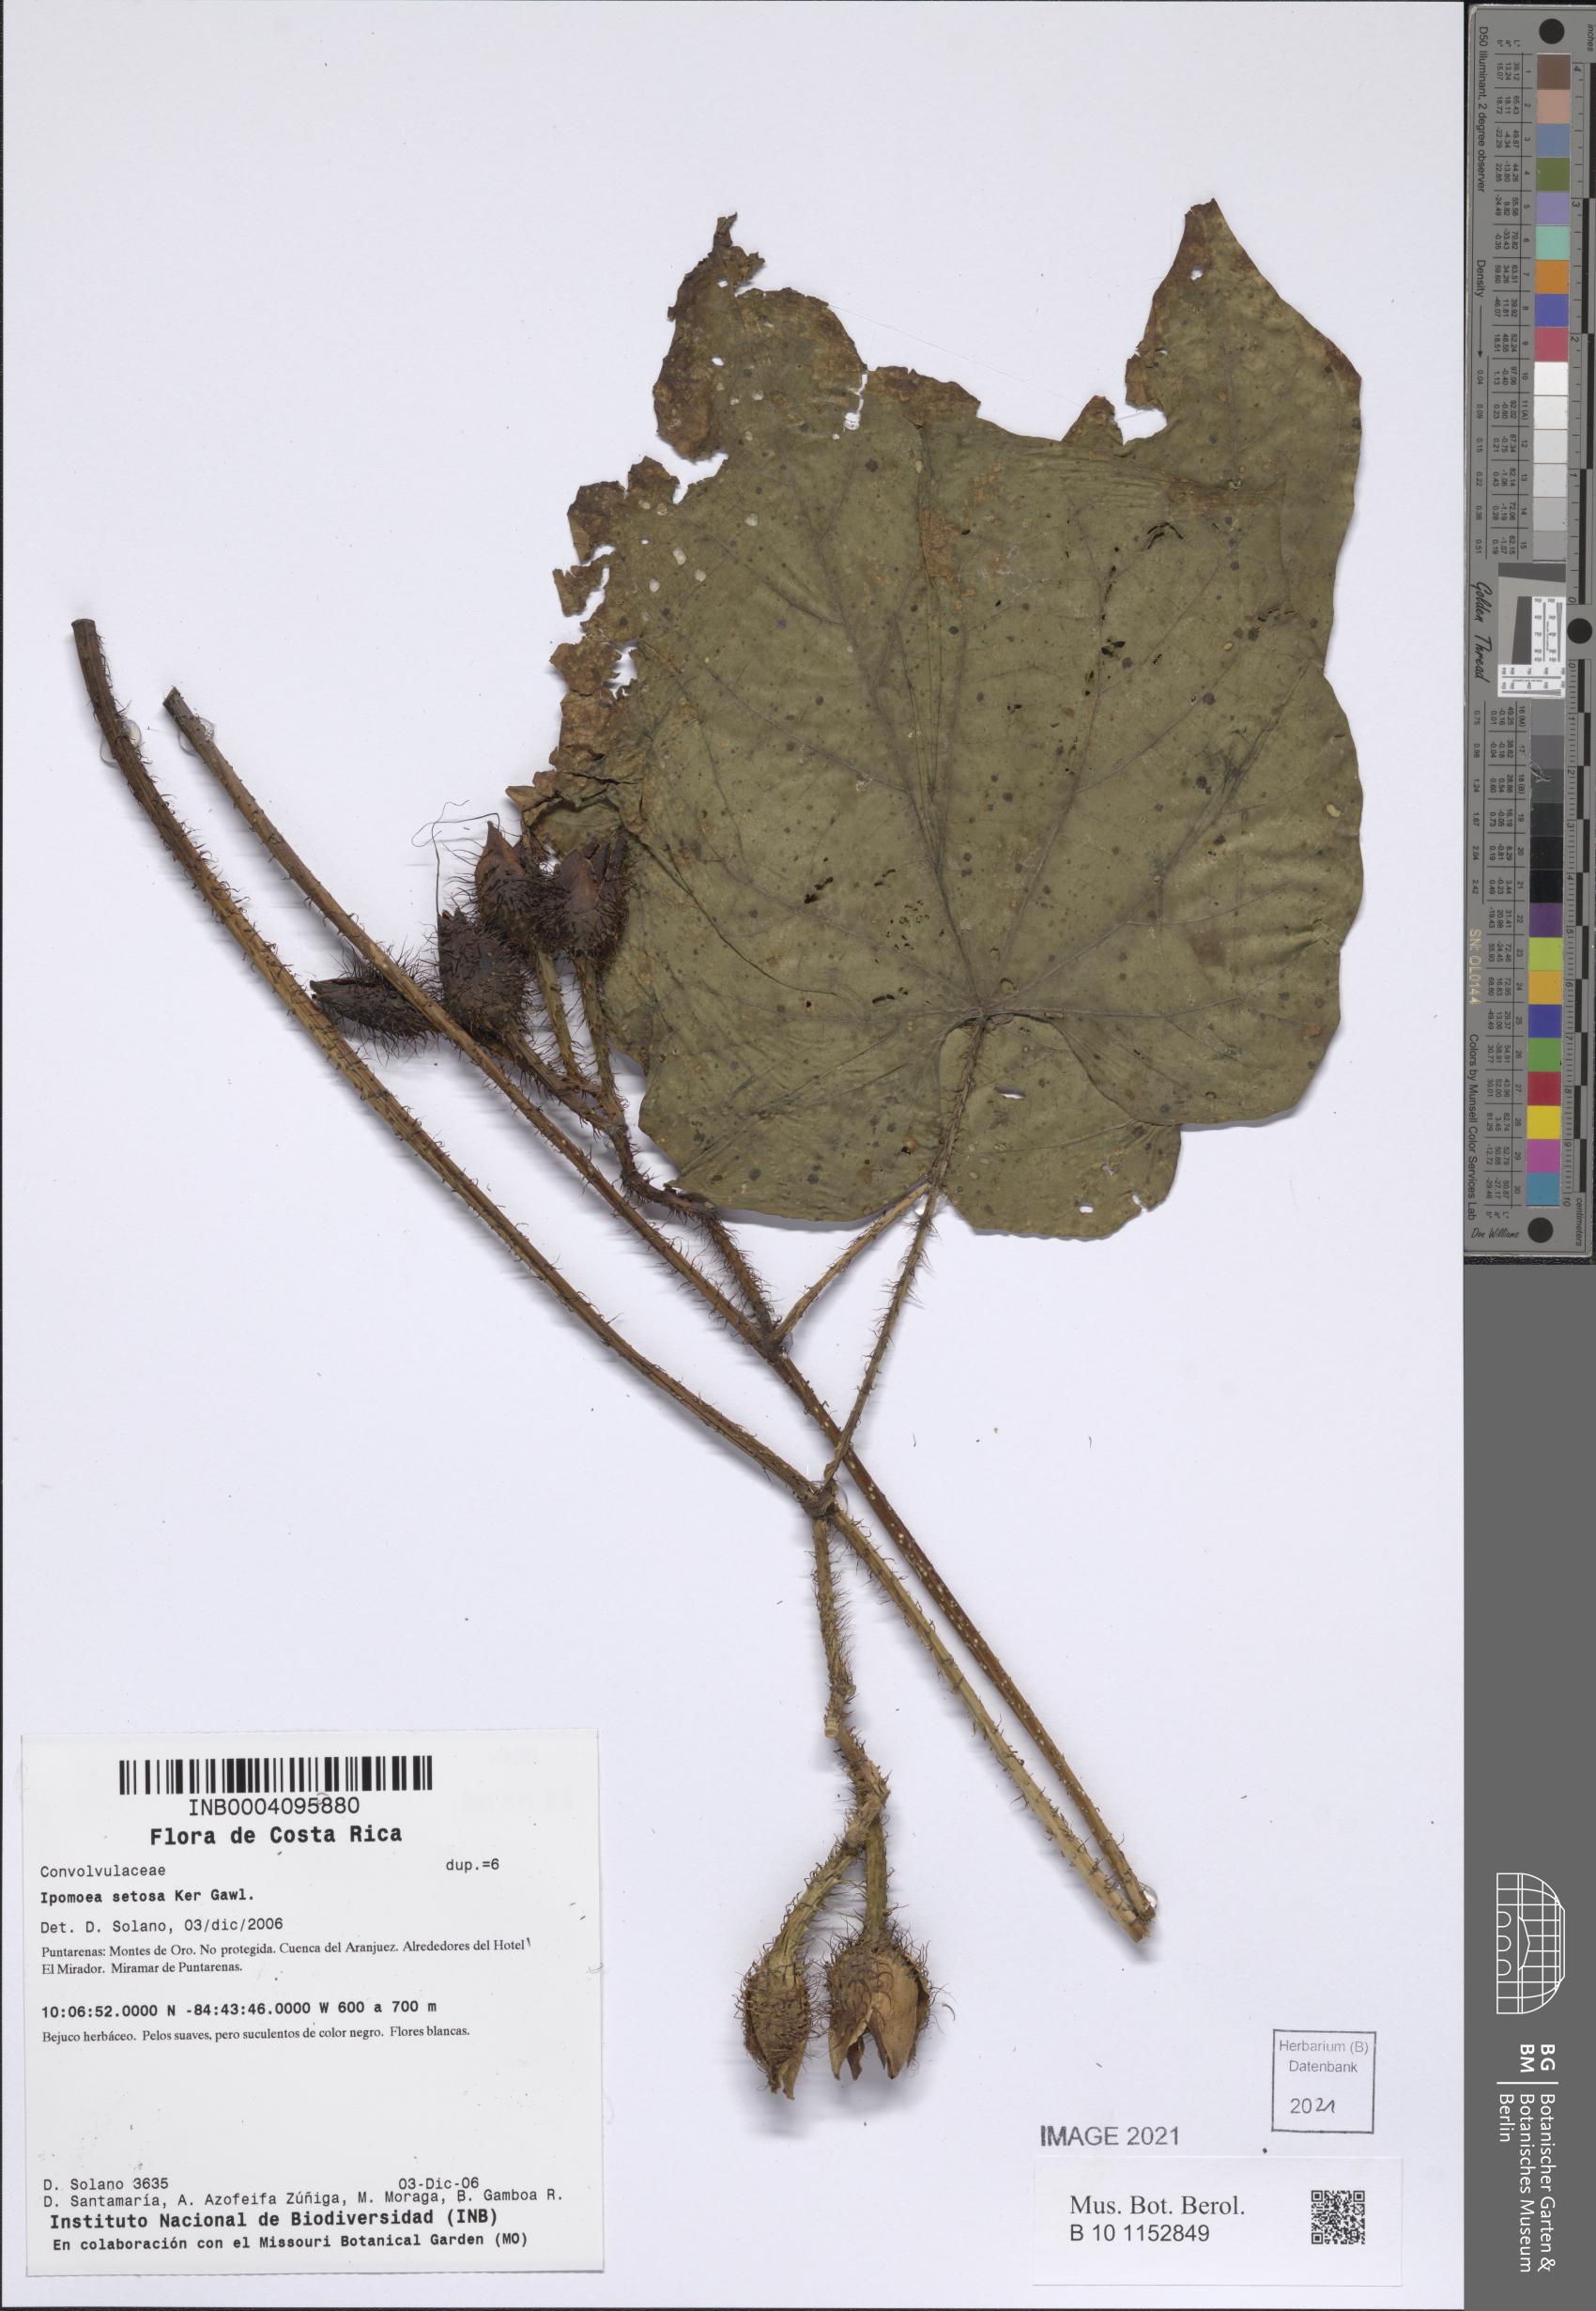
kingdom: Plantae
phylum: Tracheophyta
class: Magnoliopsida
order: Solanales
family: Convolvulaceae
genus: Ipomoea
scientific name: Ipomoea setosa
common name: Brazilian morning-glory
